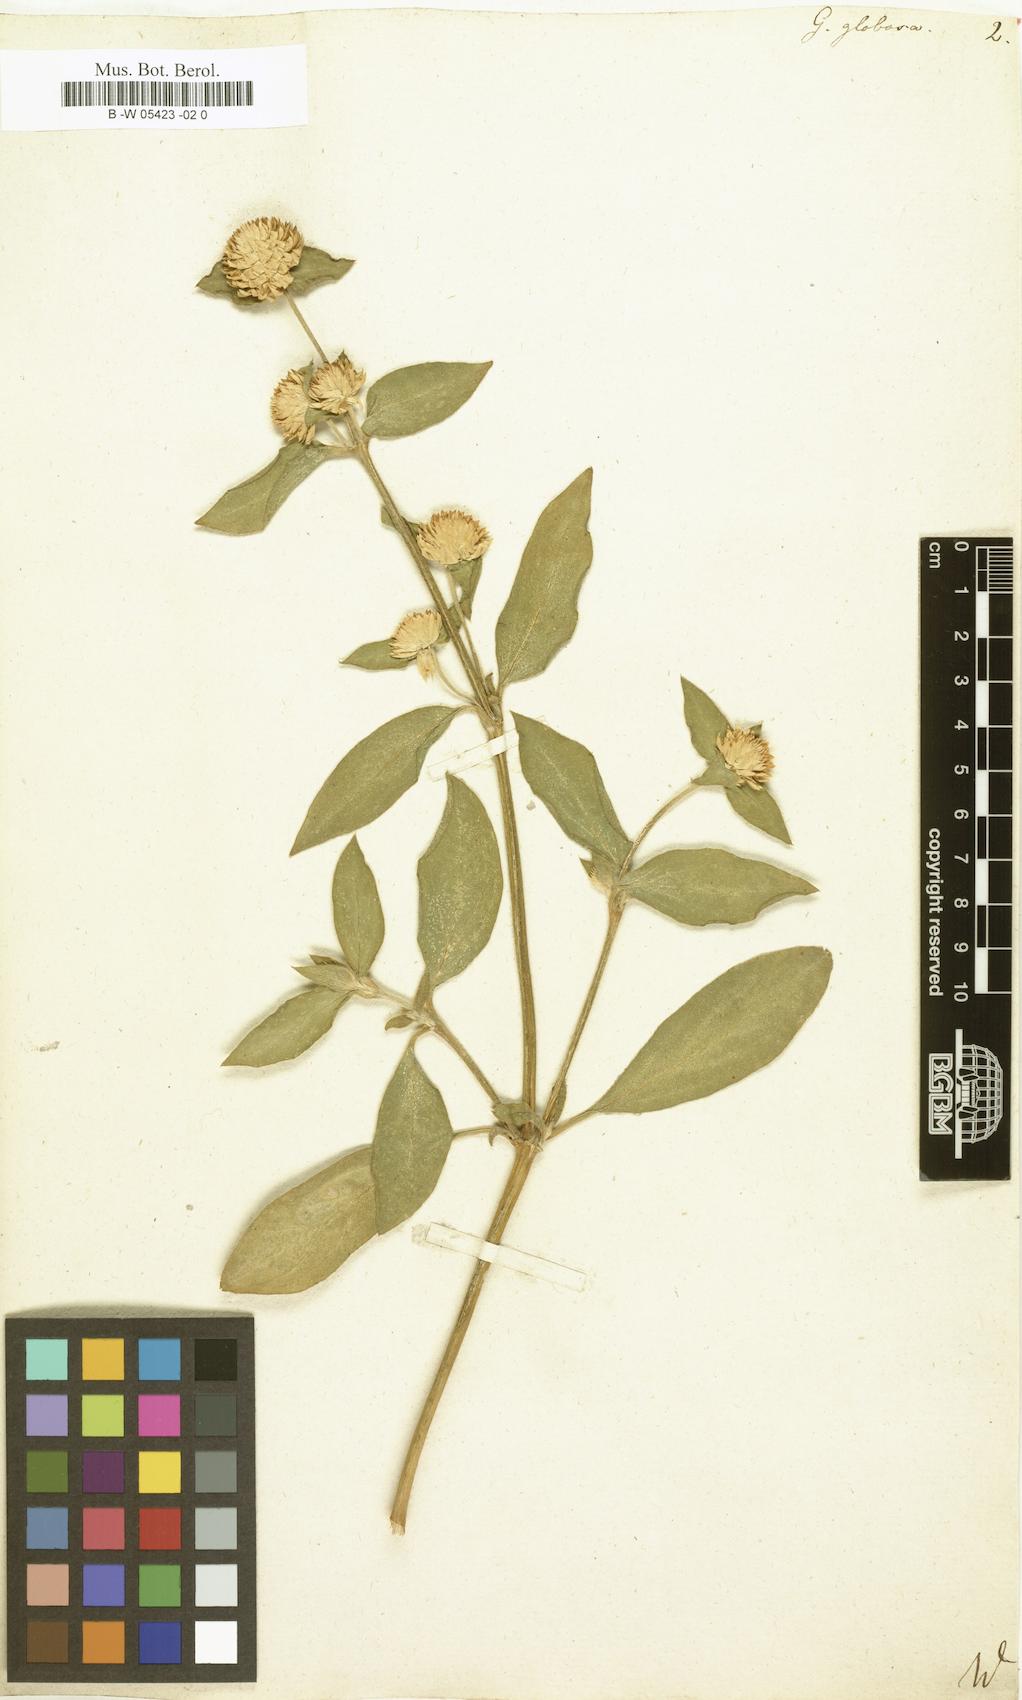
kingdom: Plantae
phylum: Tracheophyta
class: Magnoliopsida
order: Caryophyllales
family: Amaranthaceae
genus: Gomphrena
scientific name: Gomphrena globosa
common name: Common globe amaranth
